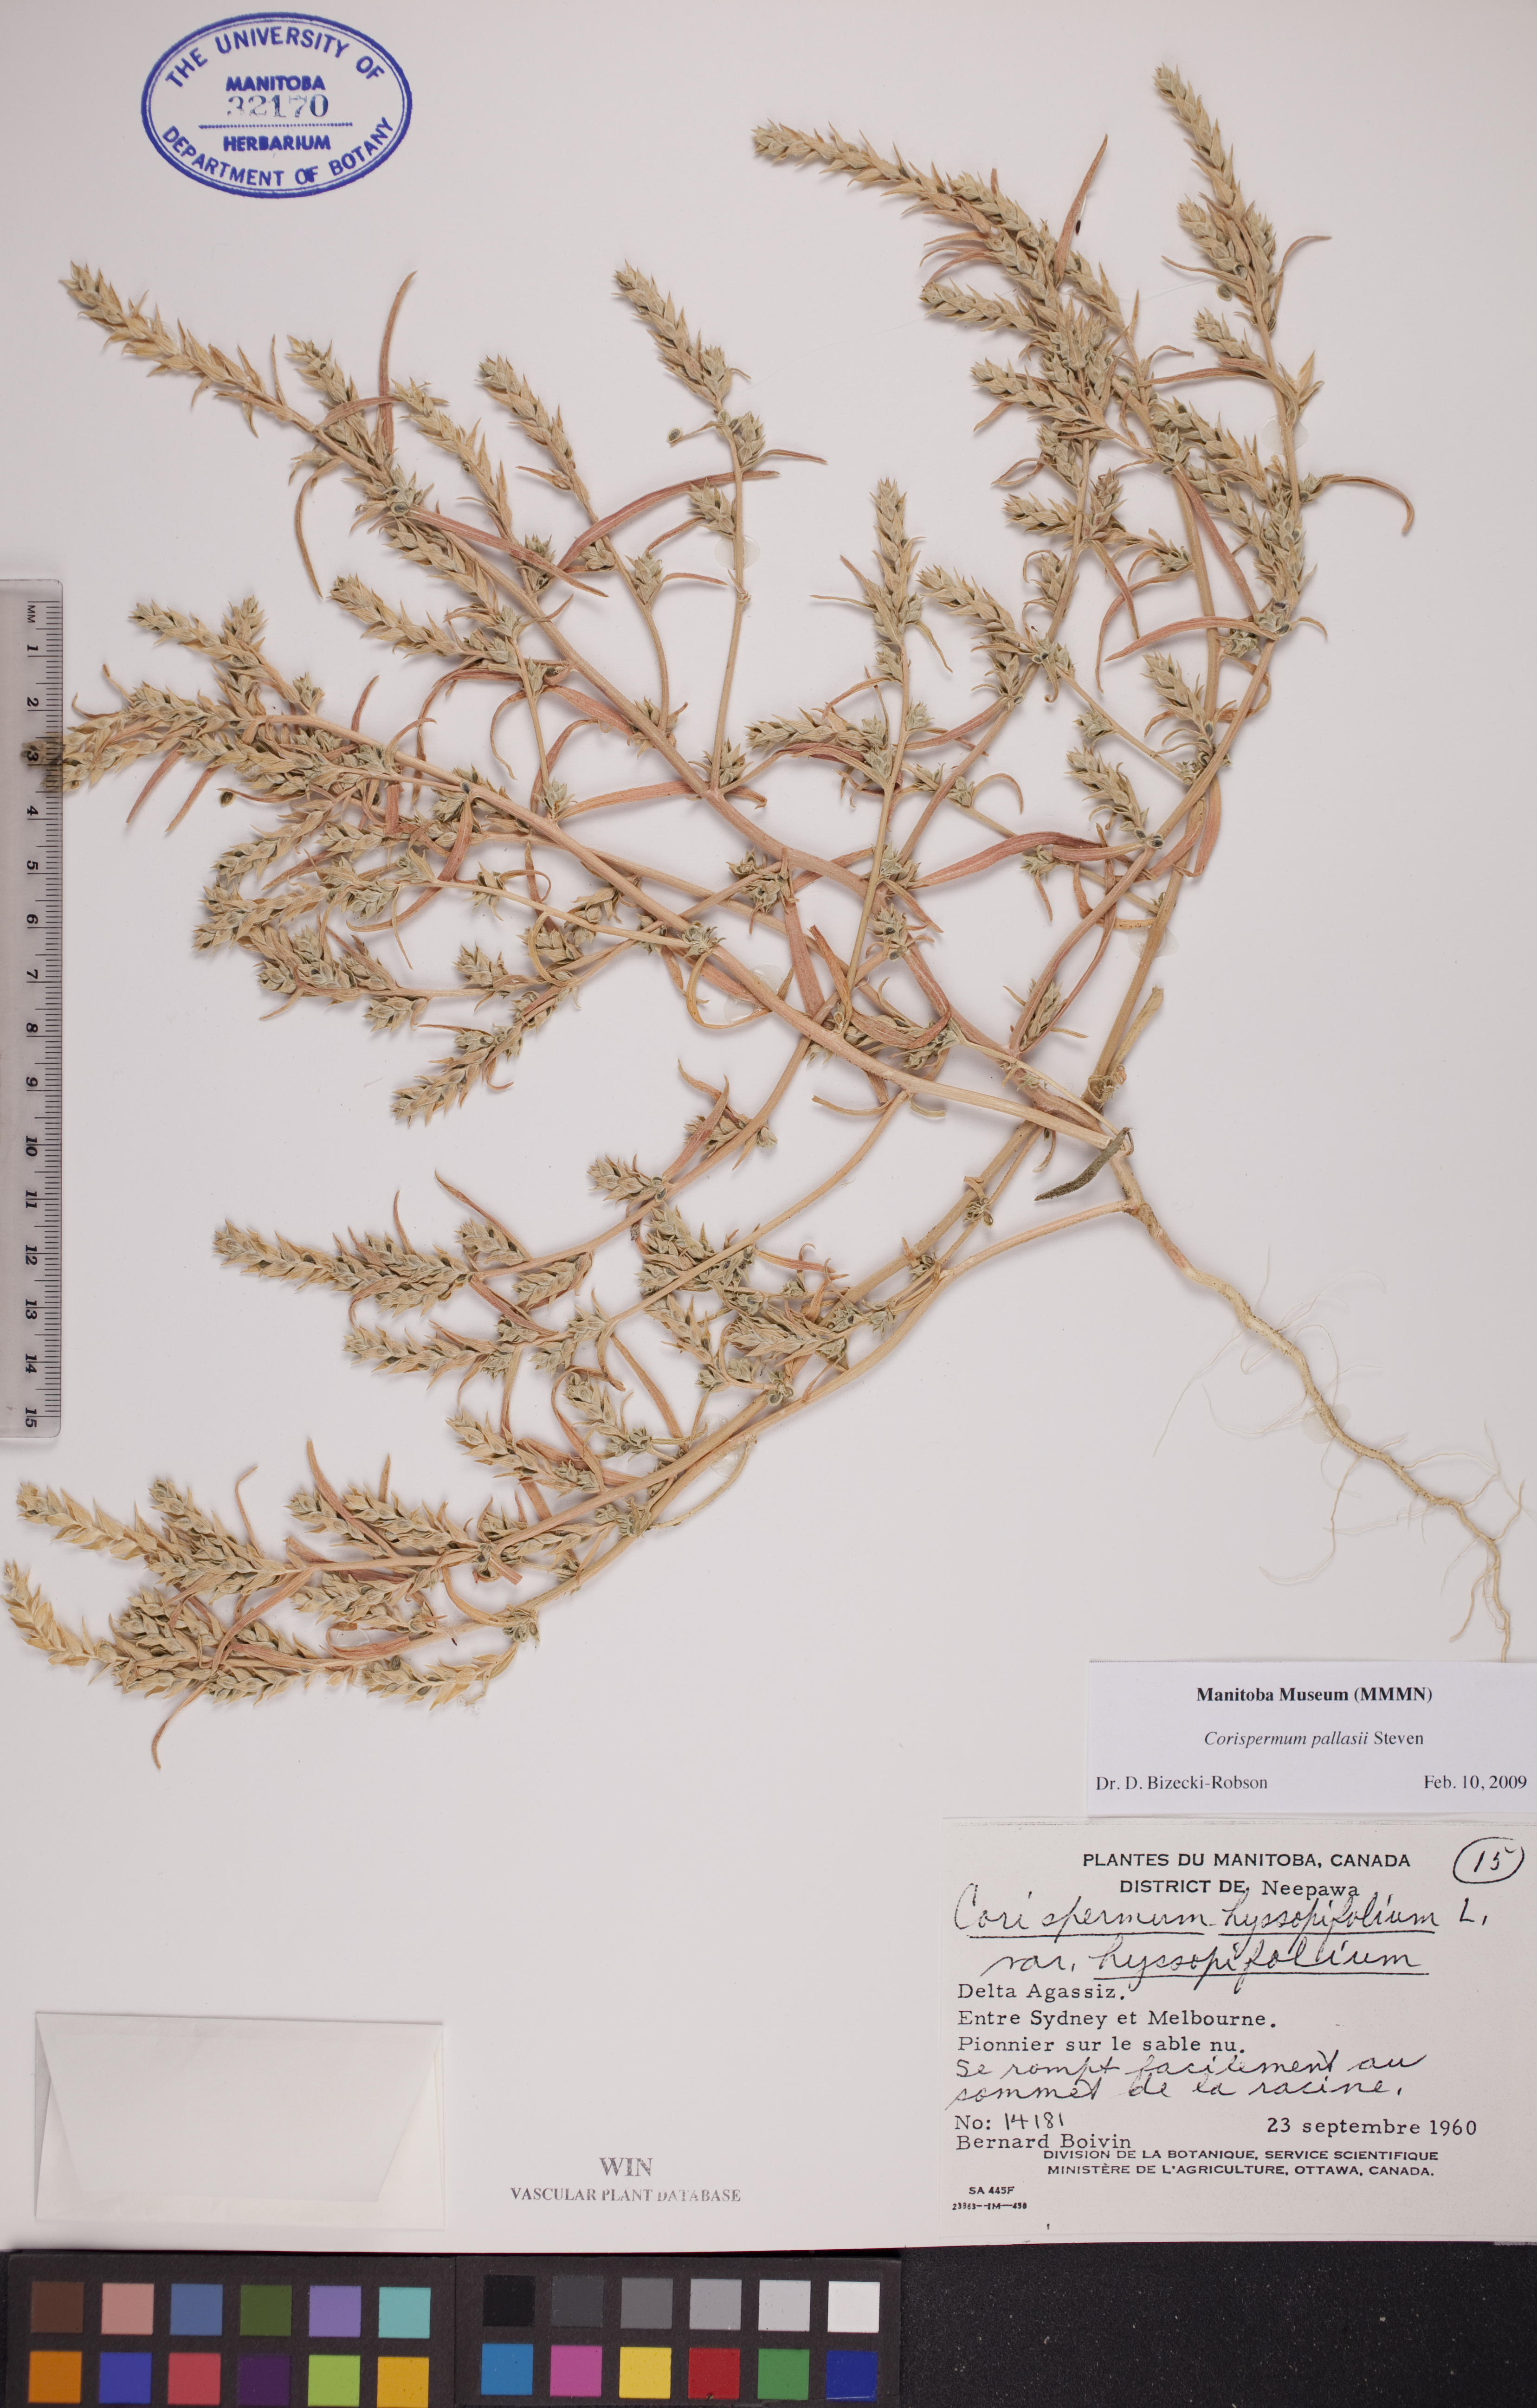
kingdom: Plantae
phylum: Tracheophyta
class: Magnoliopsida
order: Caryophyllales
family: Amaranthaceae
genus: Corispermum
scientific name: Corispermum pallasii
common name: Siberian bugseed
